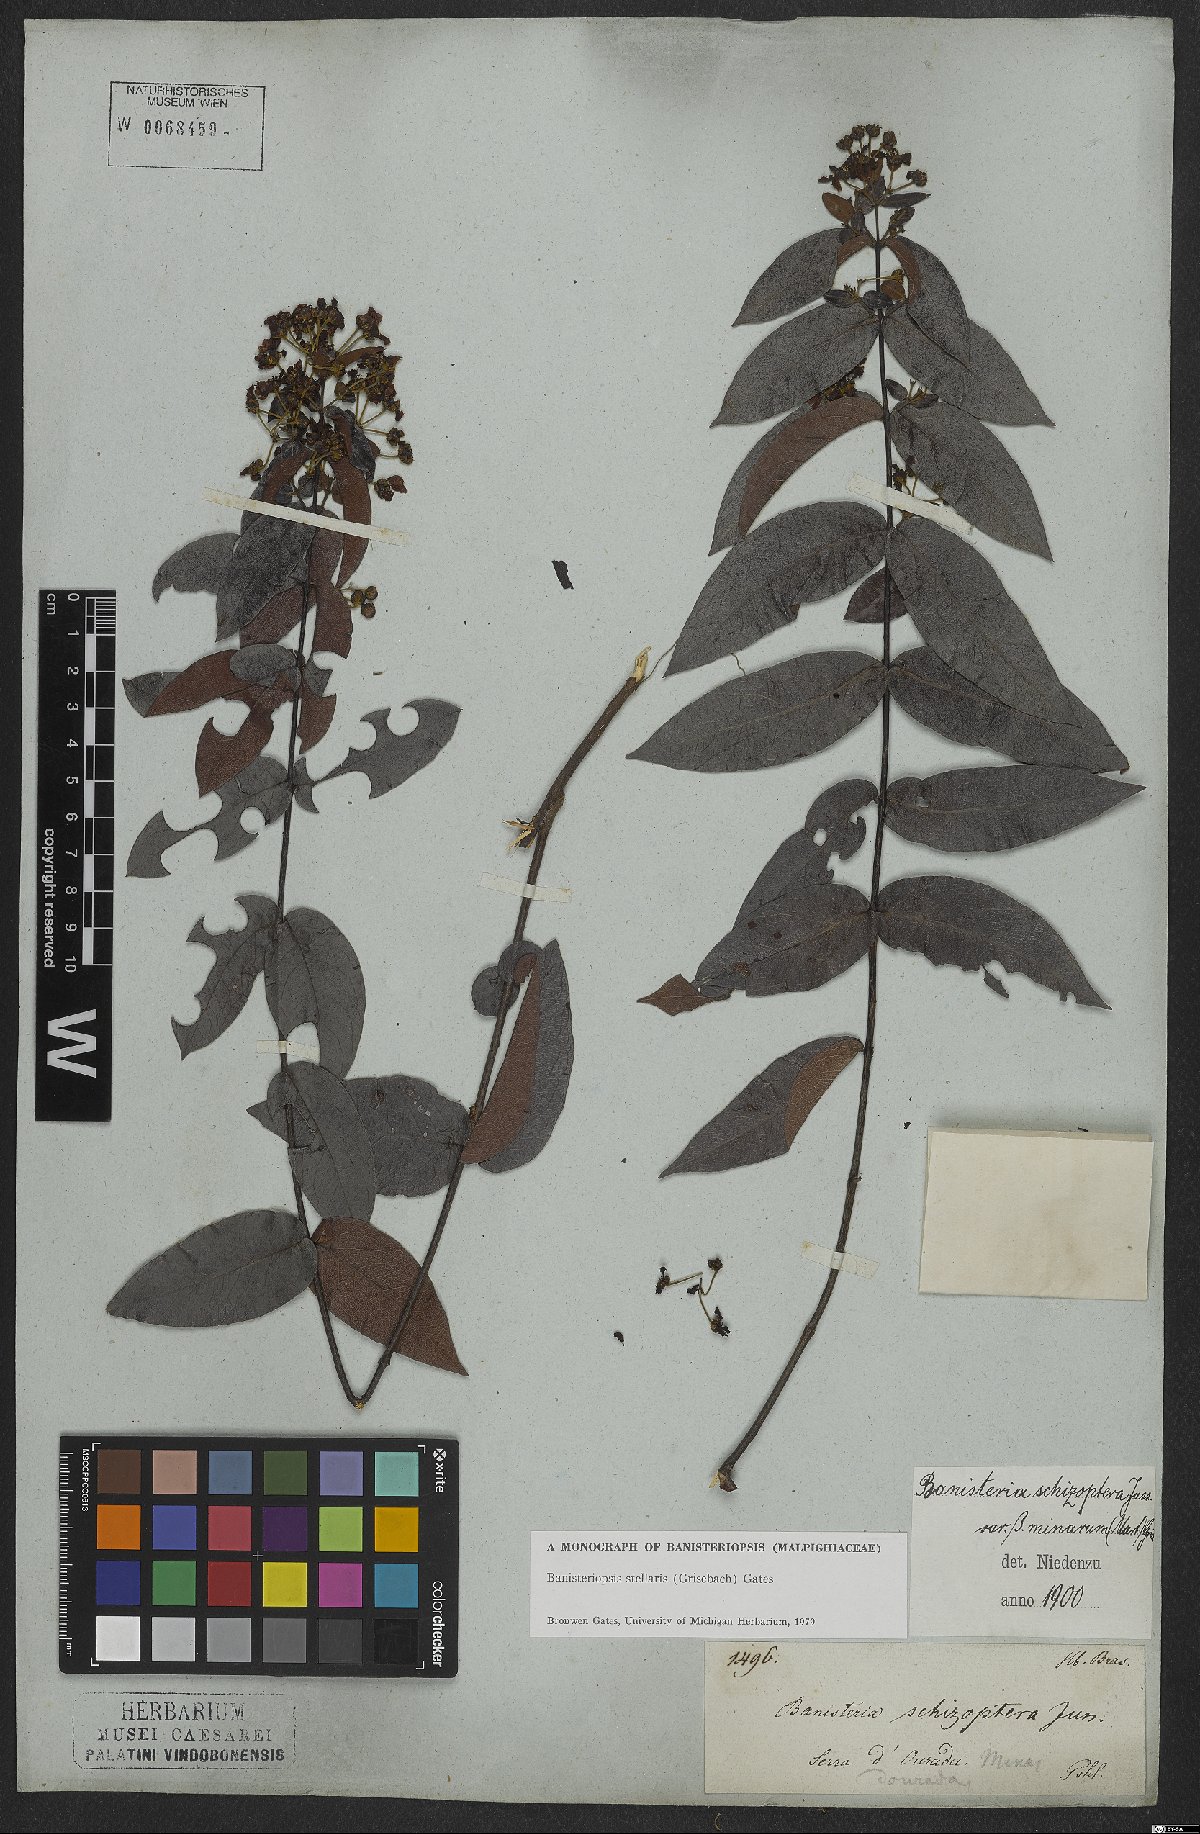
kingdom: Plantae
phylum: Tracheophyta
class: Magnoliopsida
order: Malpighiales
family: Malpighiaceae
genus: Banisteriopsis
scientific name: Banisteriopsis stellaris
